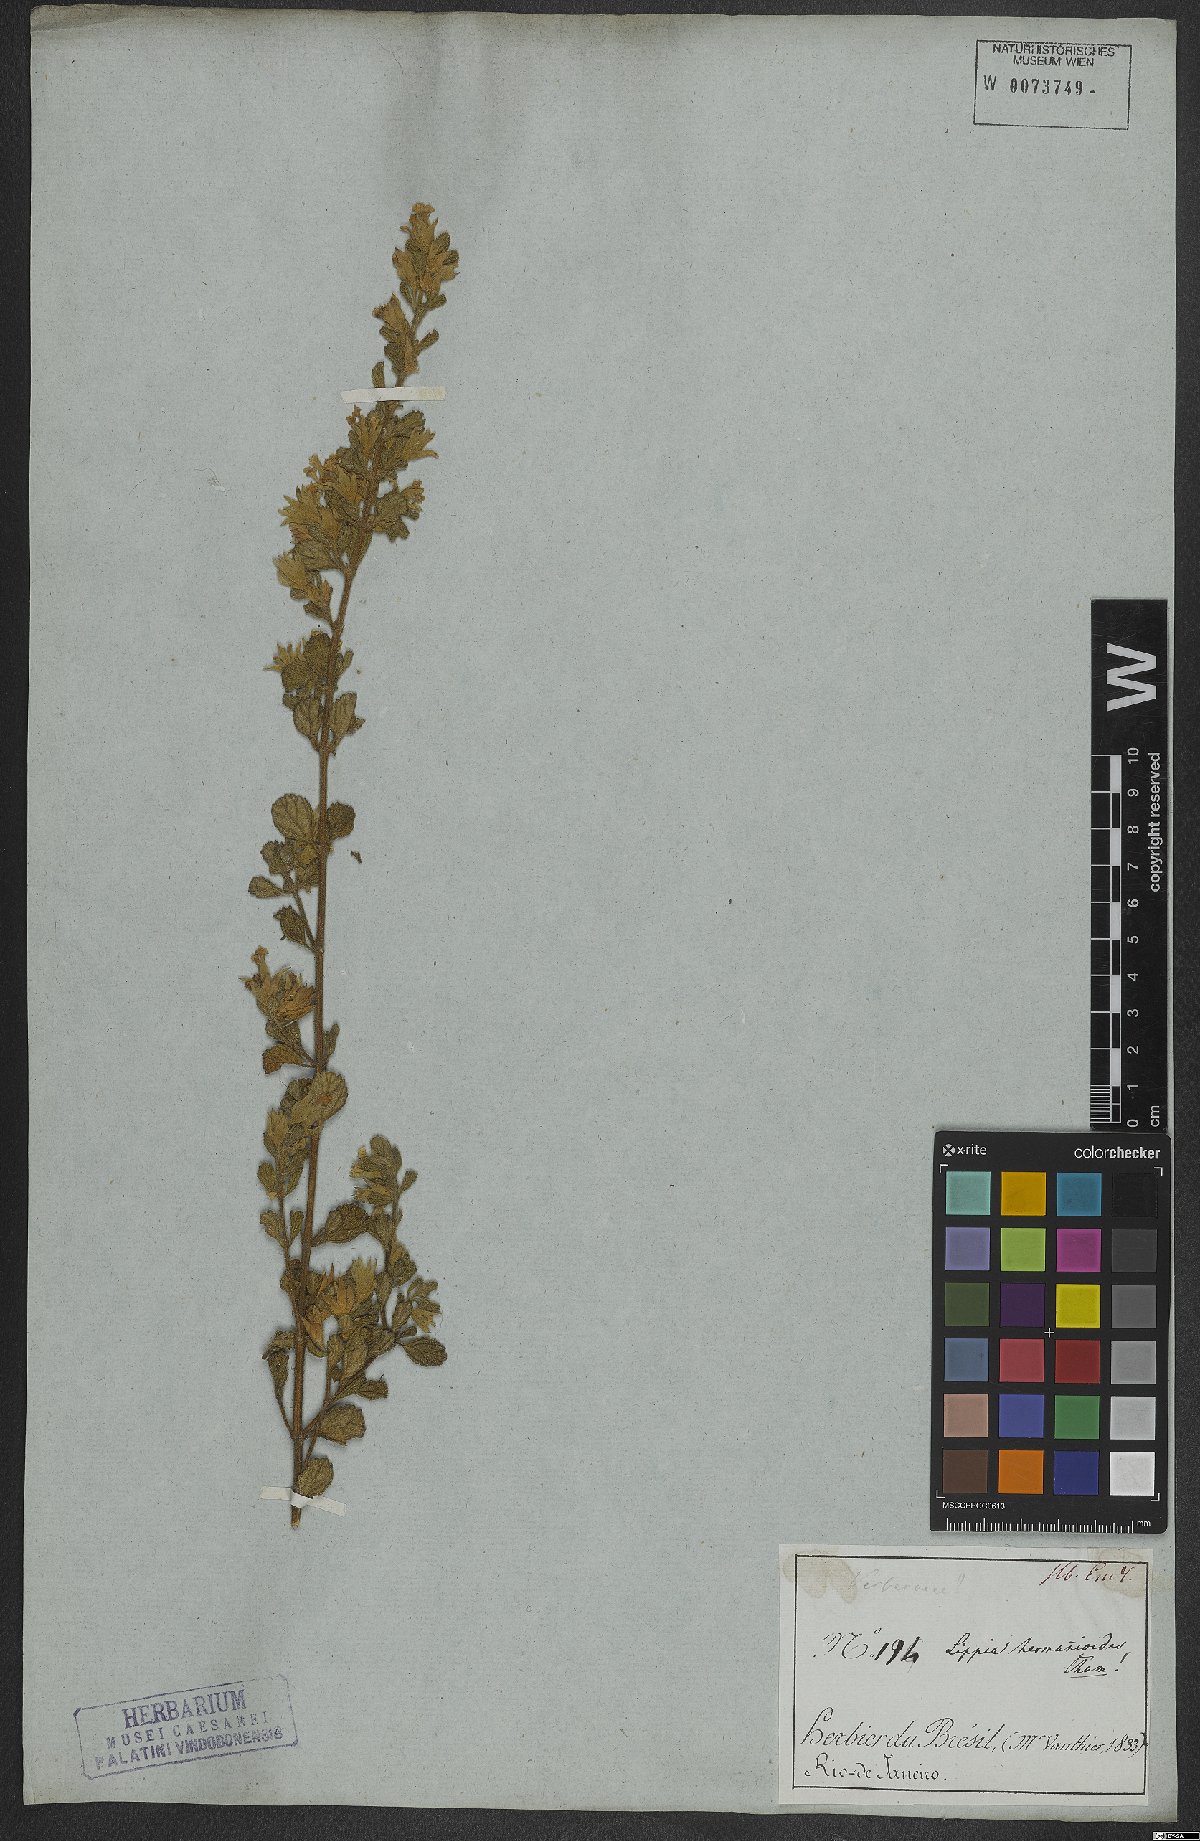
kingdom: Plantae
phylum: Tracheophyta
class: Magnoliopsida
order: Lamiales
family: Verbenaceae
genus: Lippia
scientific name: Lippia hermannioides
